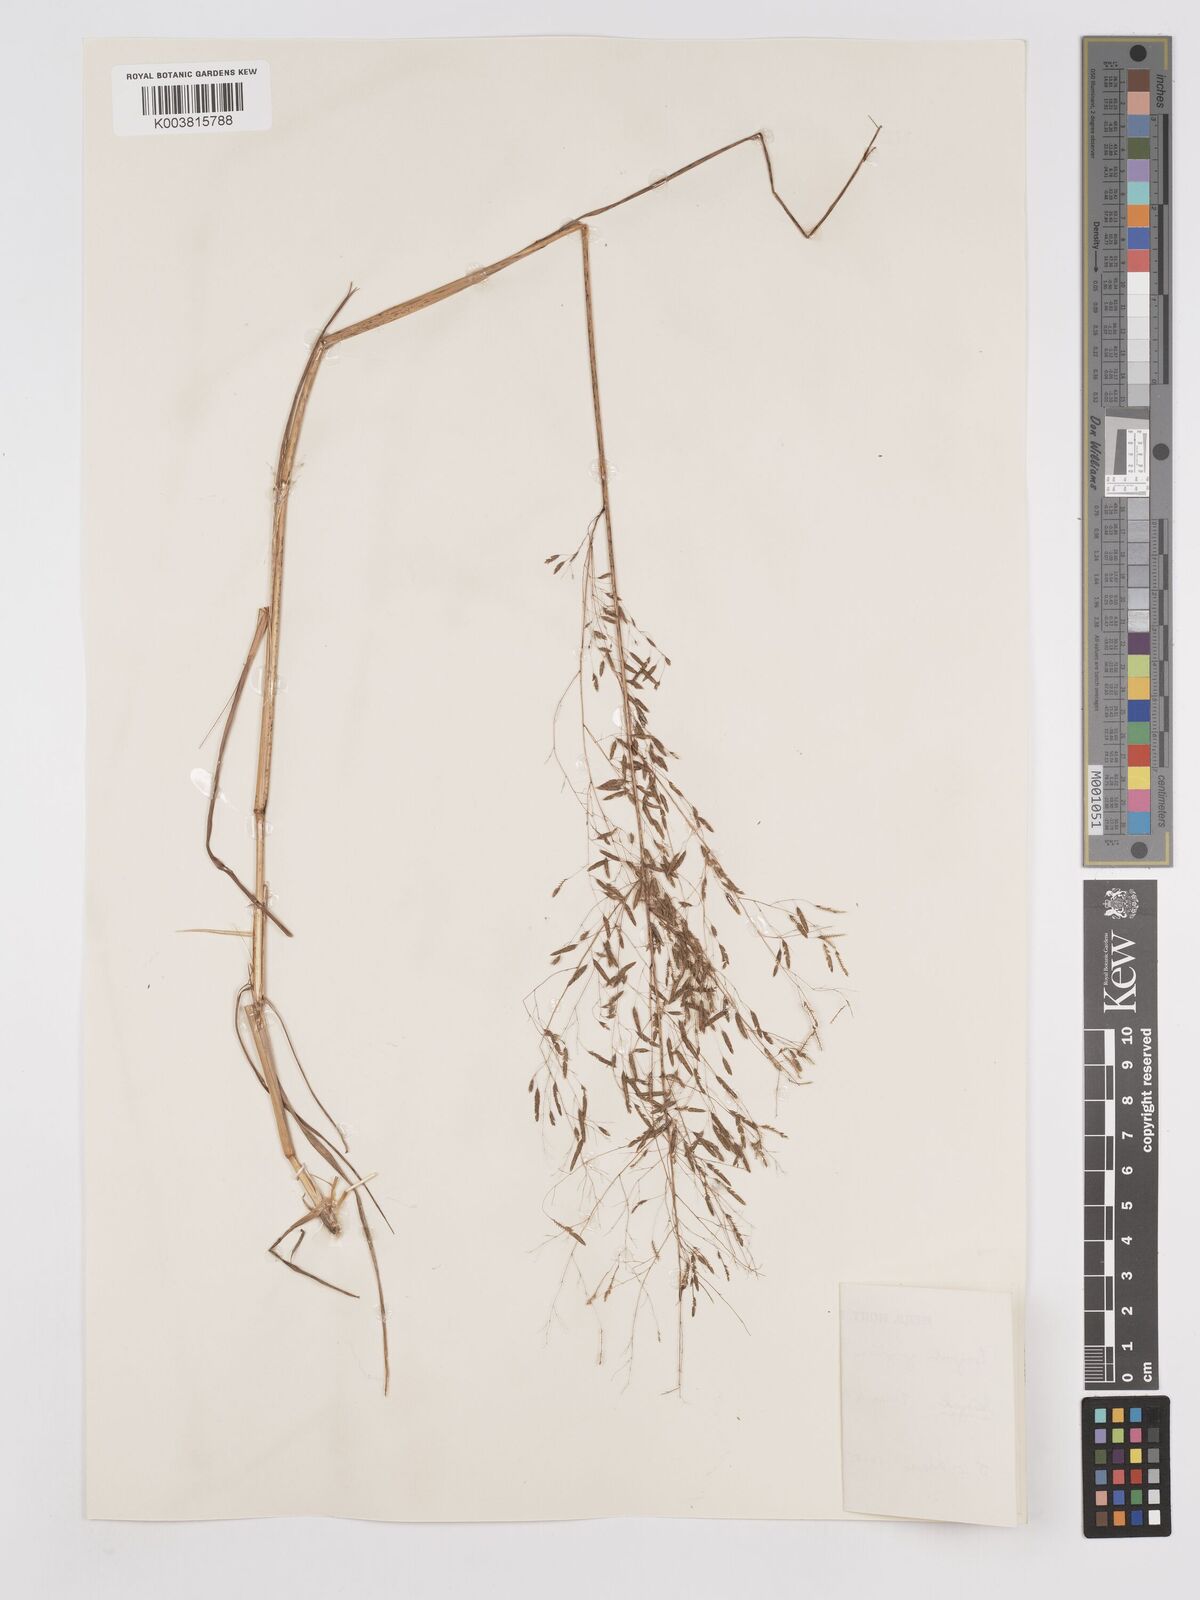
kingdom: Plantae
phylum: Tracheophyta
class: Liliopsida
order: Poales
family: Poaceae
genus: Eragrostis
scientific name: Eragrostis gangetica
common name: Slimflower lovegrass
